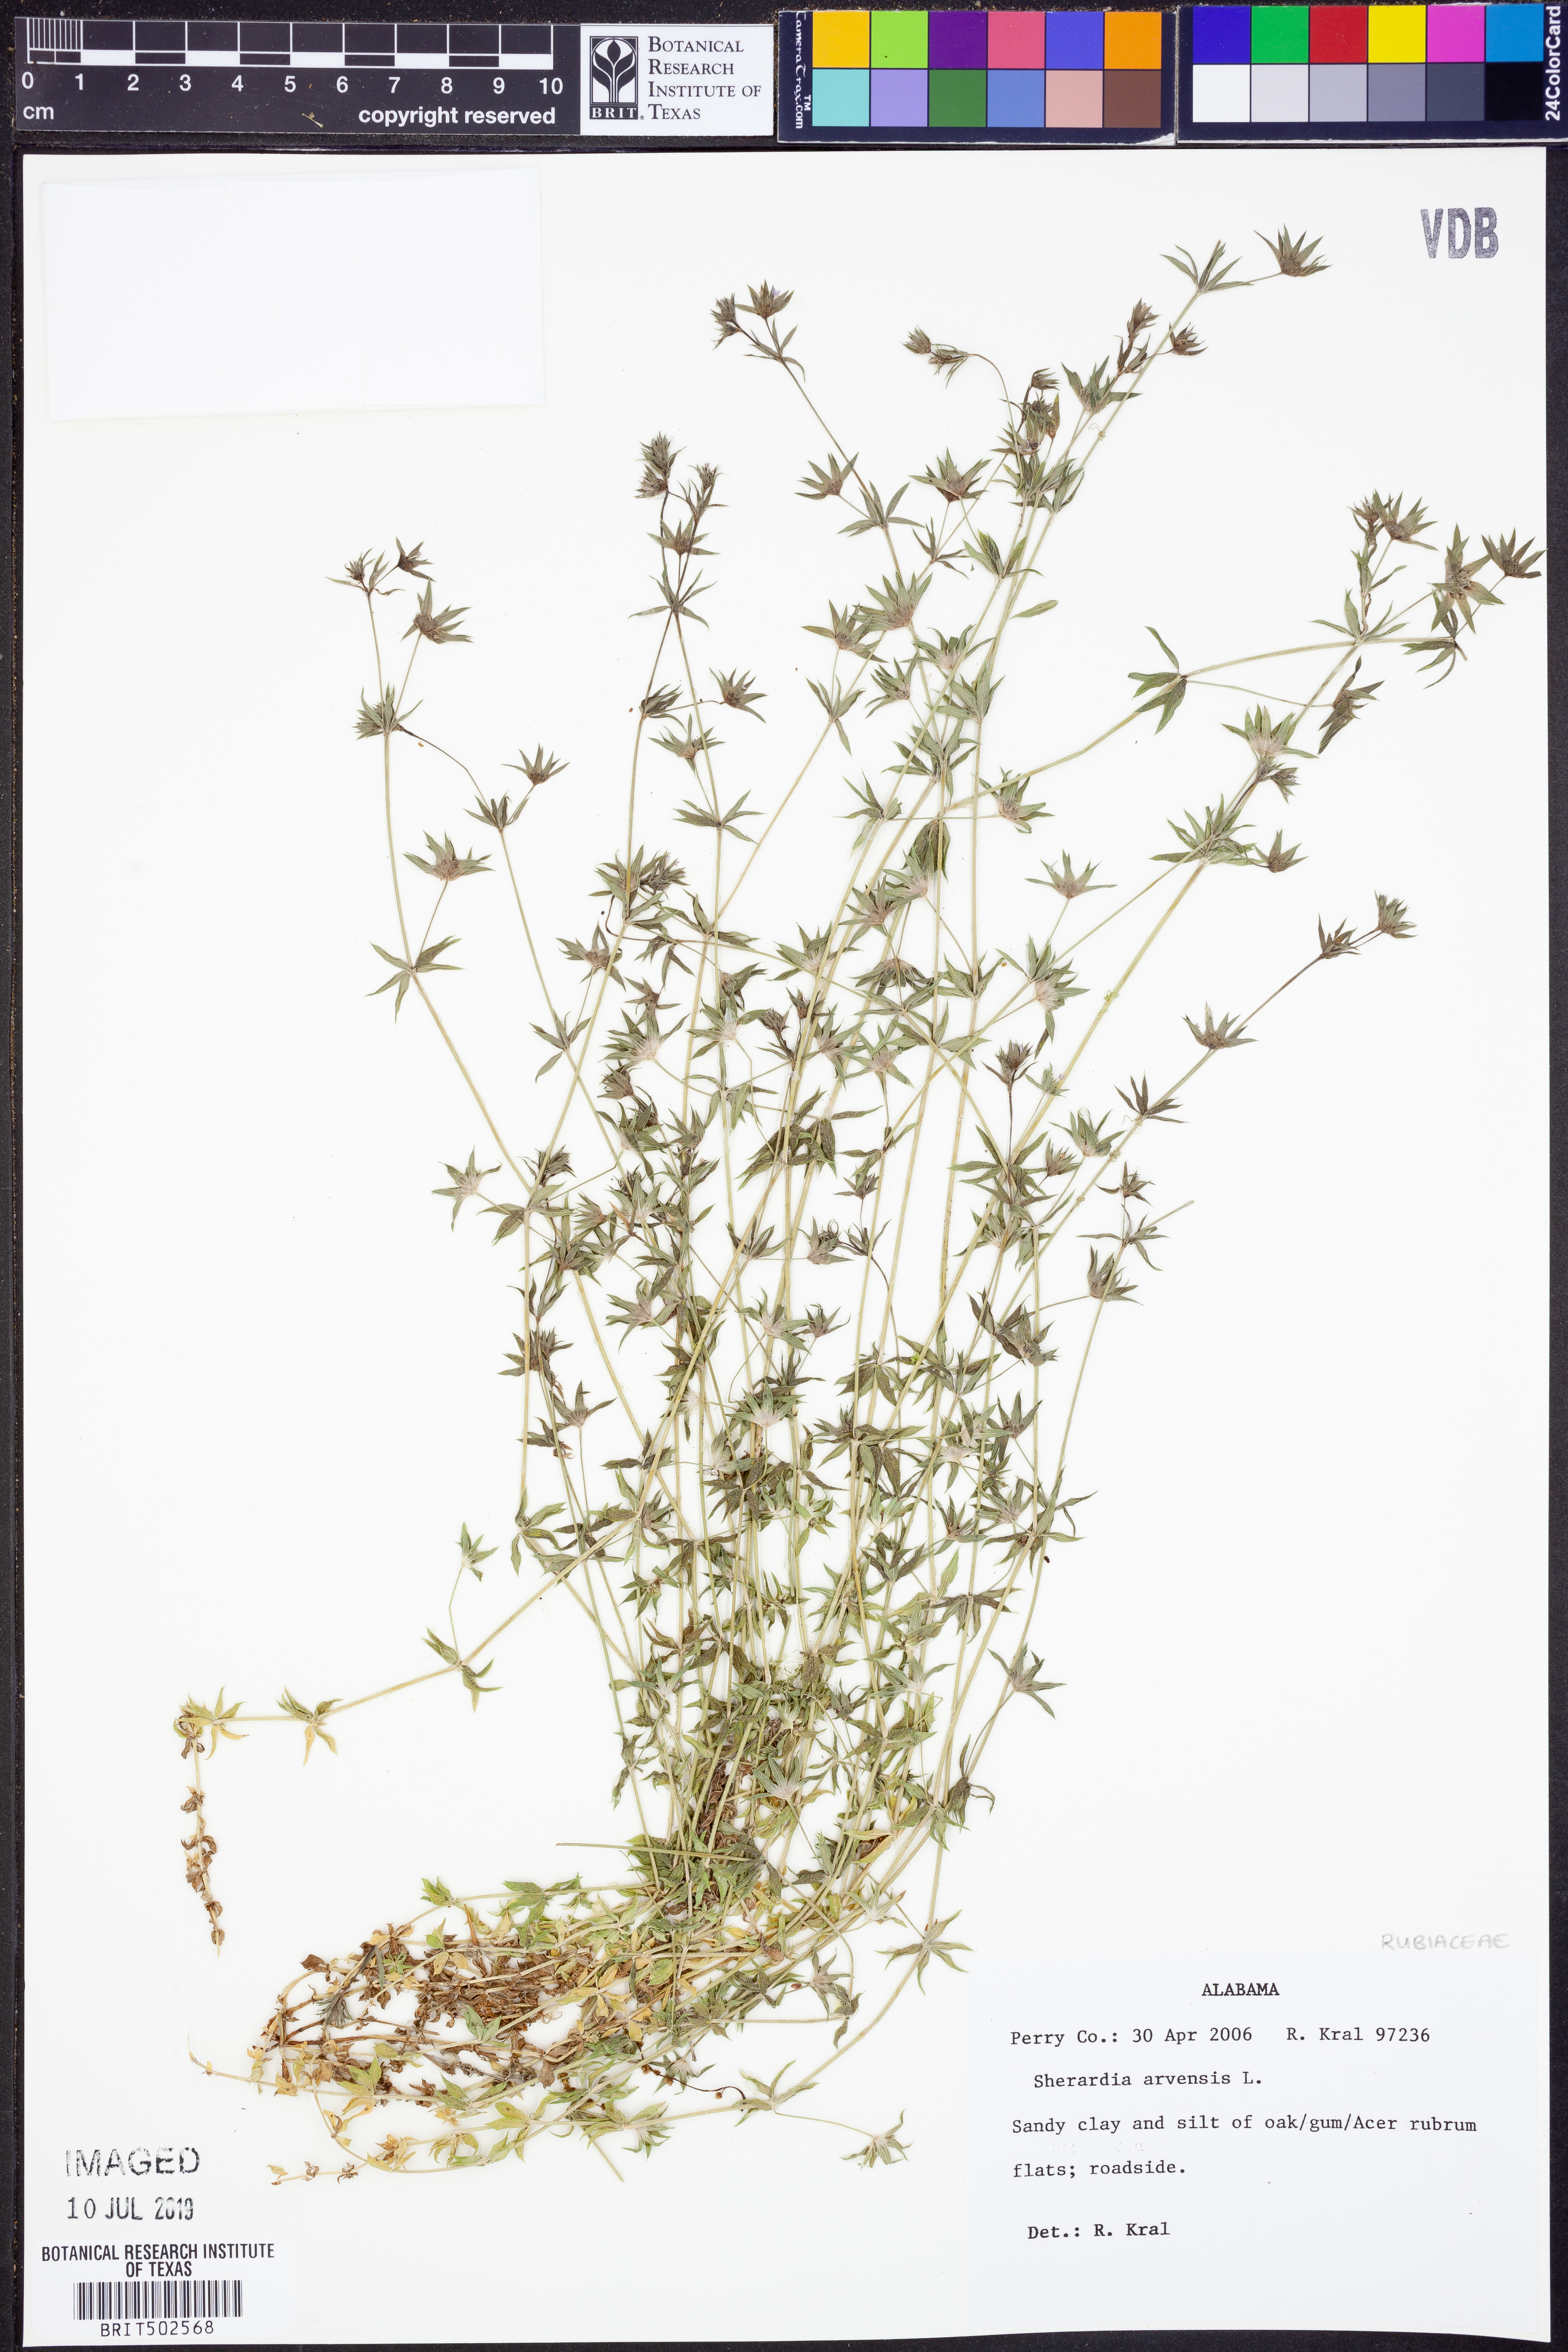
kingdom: Plantae
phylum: Tracheophyta
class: Magnoliopsida
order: Gentianales
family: Rubiaceae
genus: Sherardia
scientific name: Sherardia arvensis
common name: Field madder
